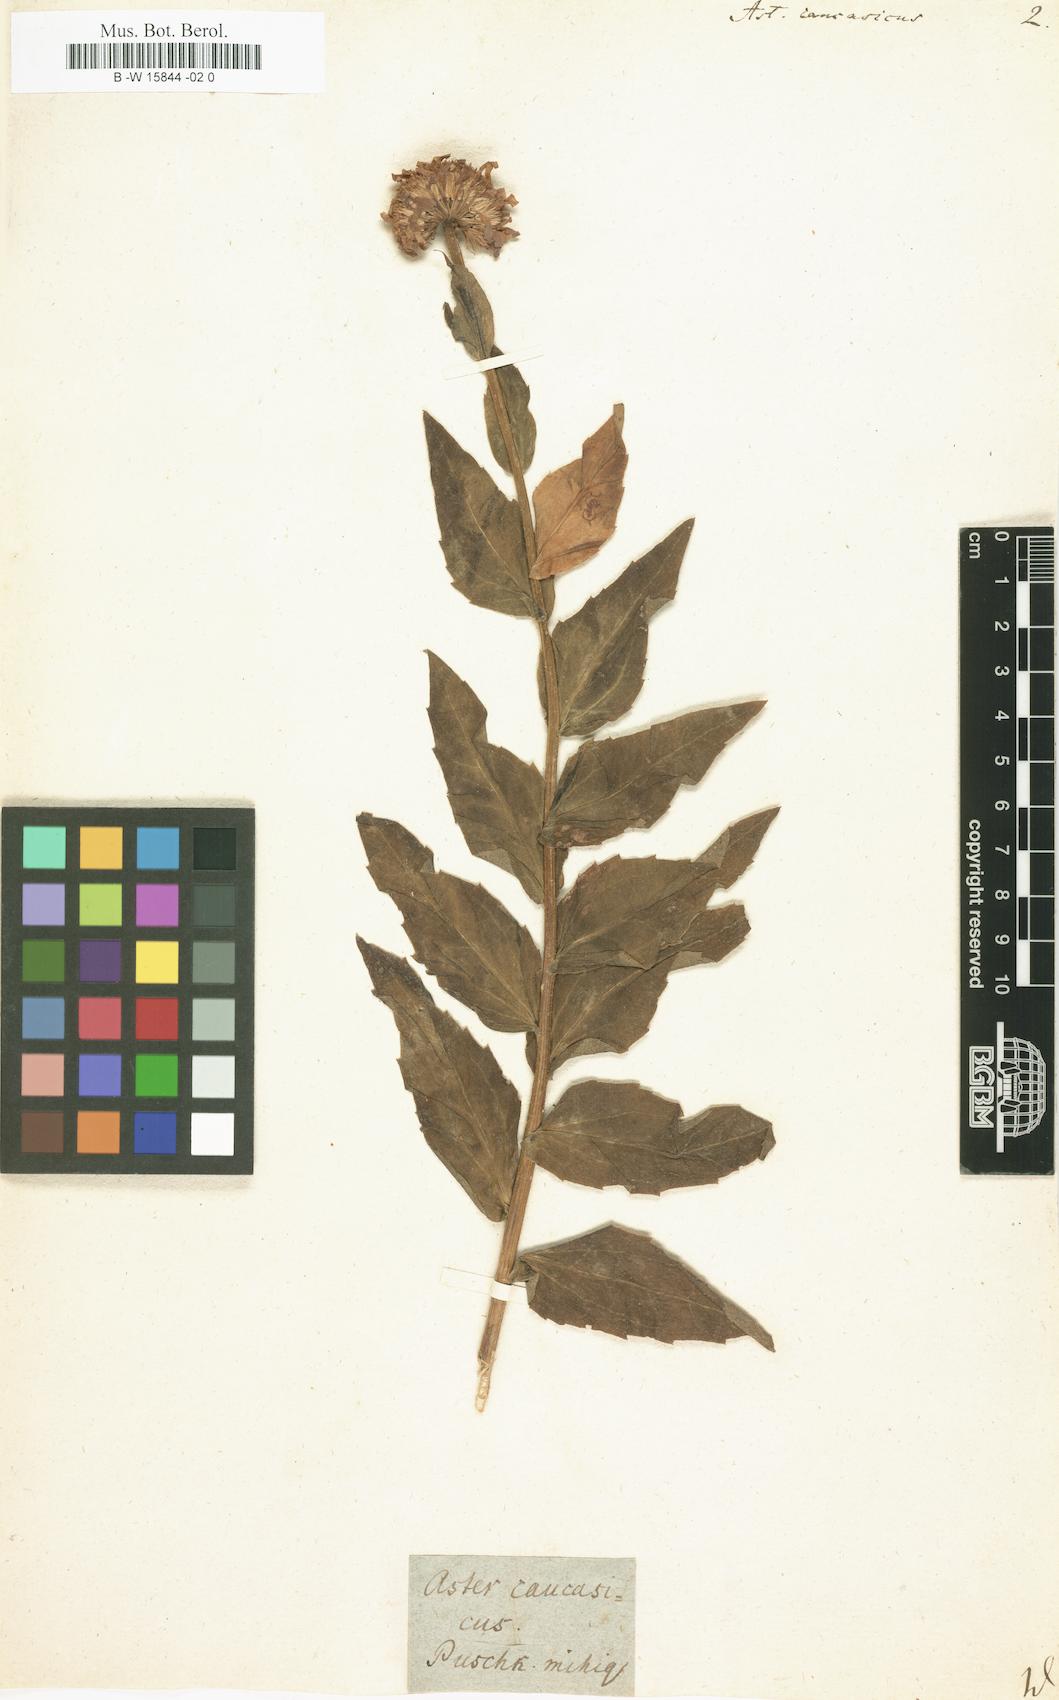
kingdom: Plantae
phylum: Tracheophyta
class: Magnoliopsida
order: Asterales
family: Asteraceae
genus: Kemulariella
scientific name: Kemulariella caucasica
